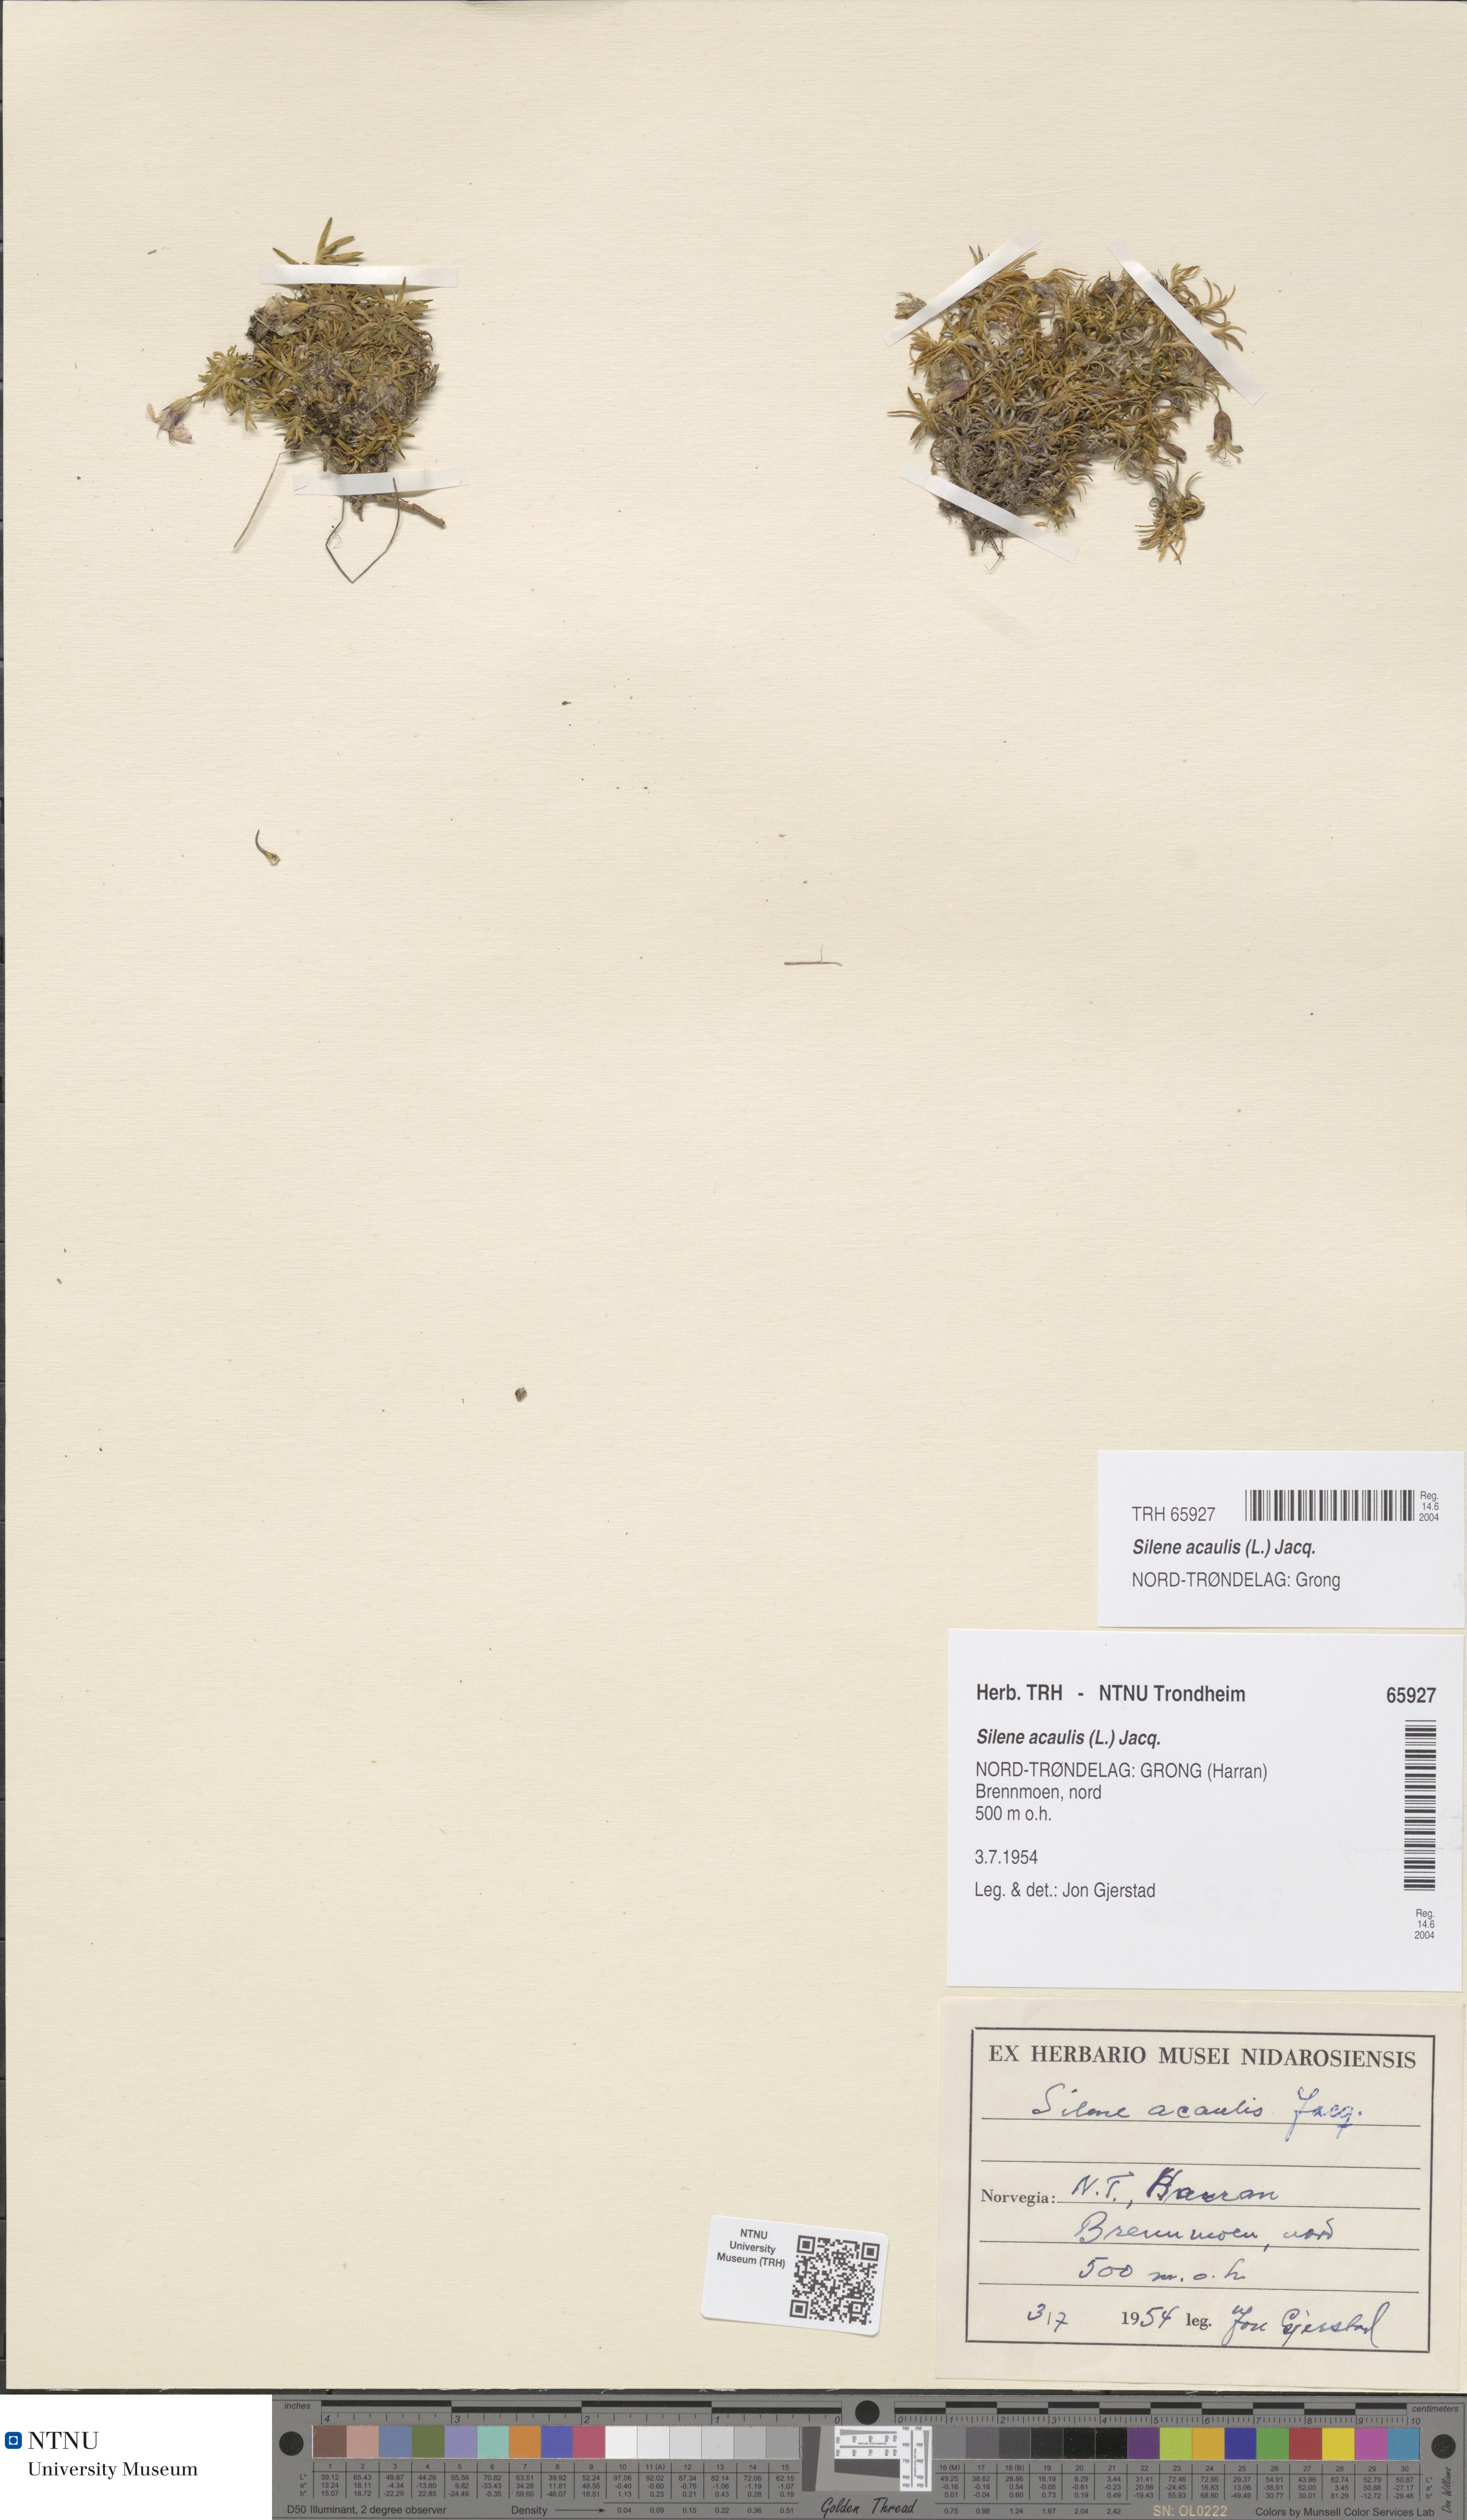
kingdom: Plantae
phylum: Tracheophyta
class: Magnoliopsida
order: Caryophyllales
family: Caryophyllaceae
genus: Silene
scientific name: Silene acaulis
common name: Moss campion
